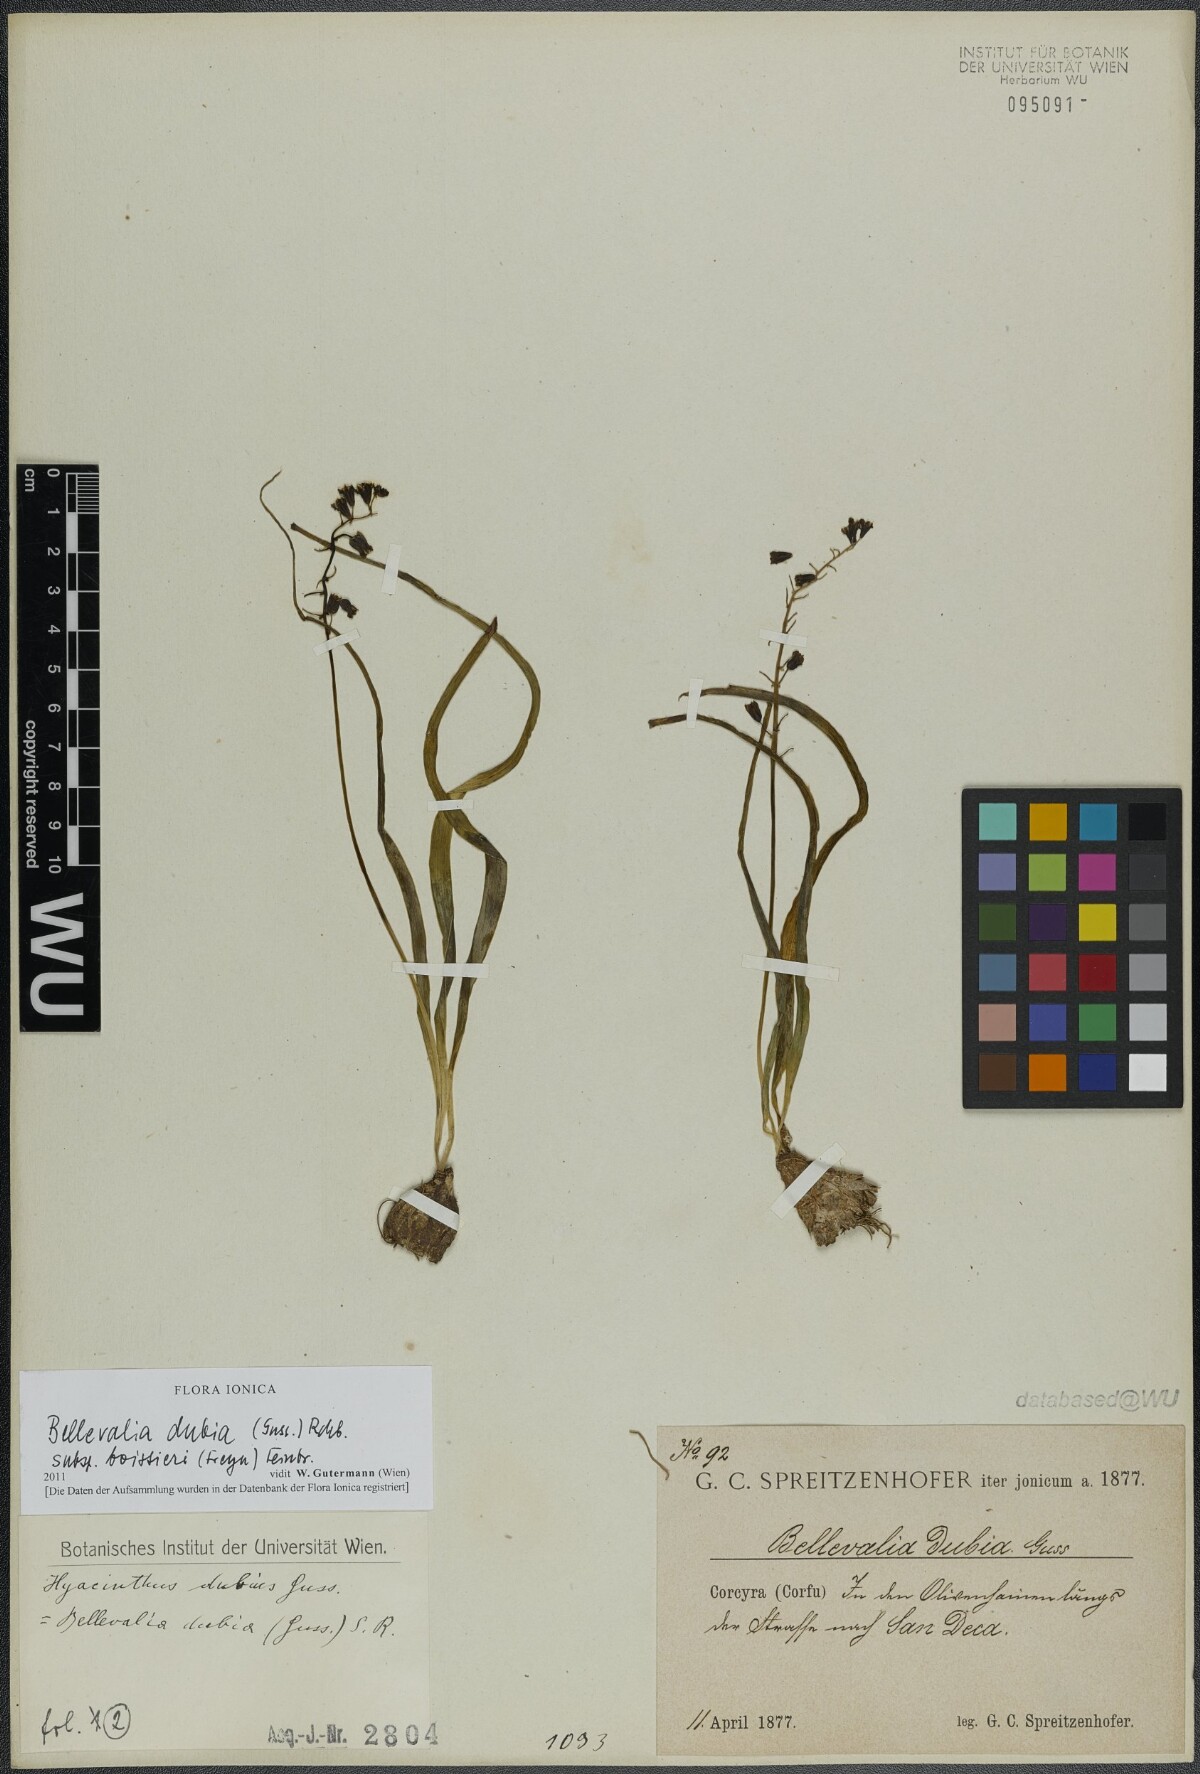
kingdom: Plantae
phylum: Tracheophyta
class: Liliopsida
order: Asparagales
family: Asparagaceae
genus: Bellevalia
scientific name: Bellevalia dubia
